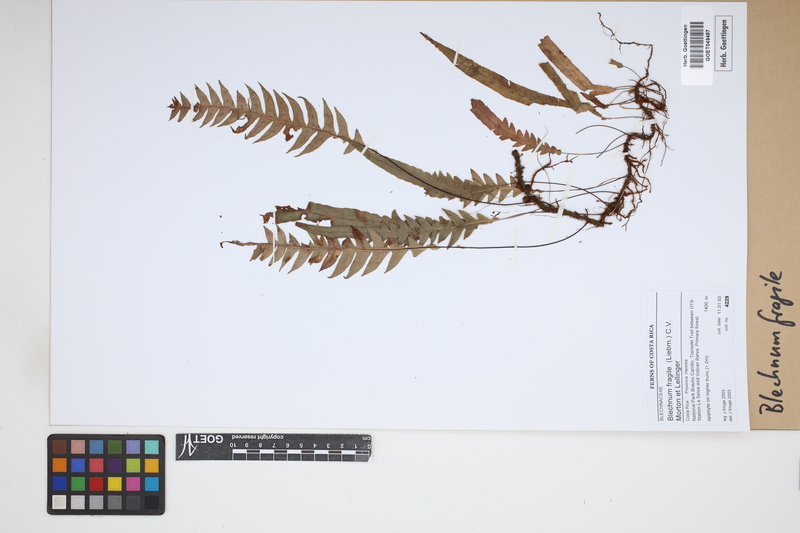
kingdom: Plantae
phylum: Tracheophyta
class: Polypodiopsida
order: Polypodiales
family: Blechnaceae
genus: Lomaridium
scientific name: Lomaridium fragile
